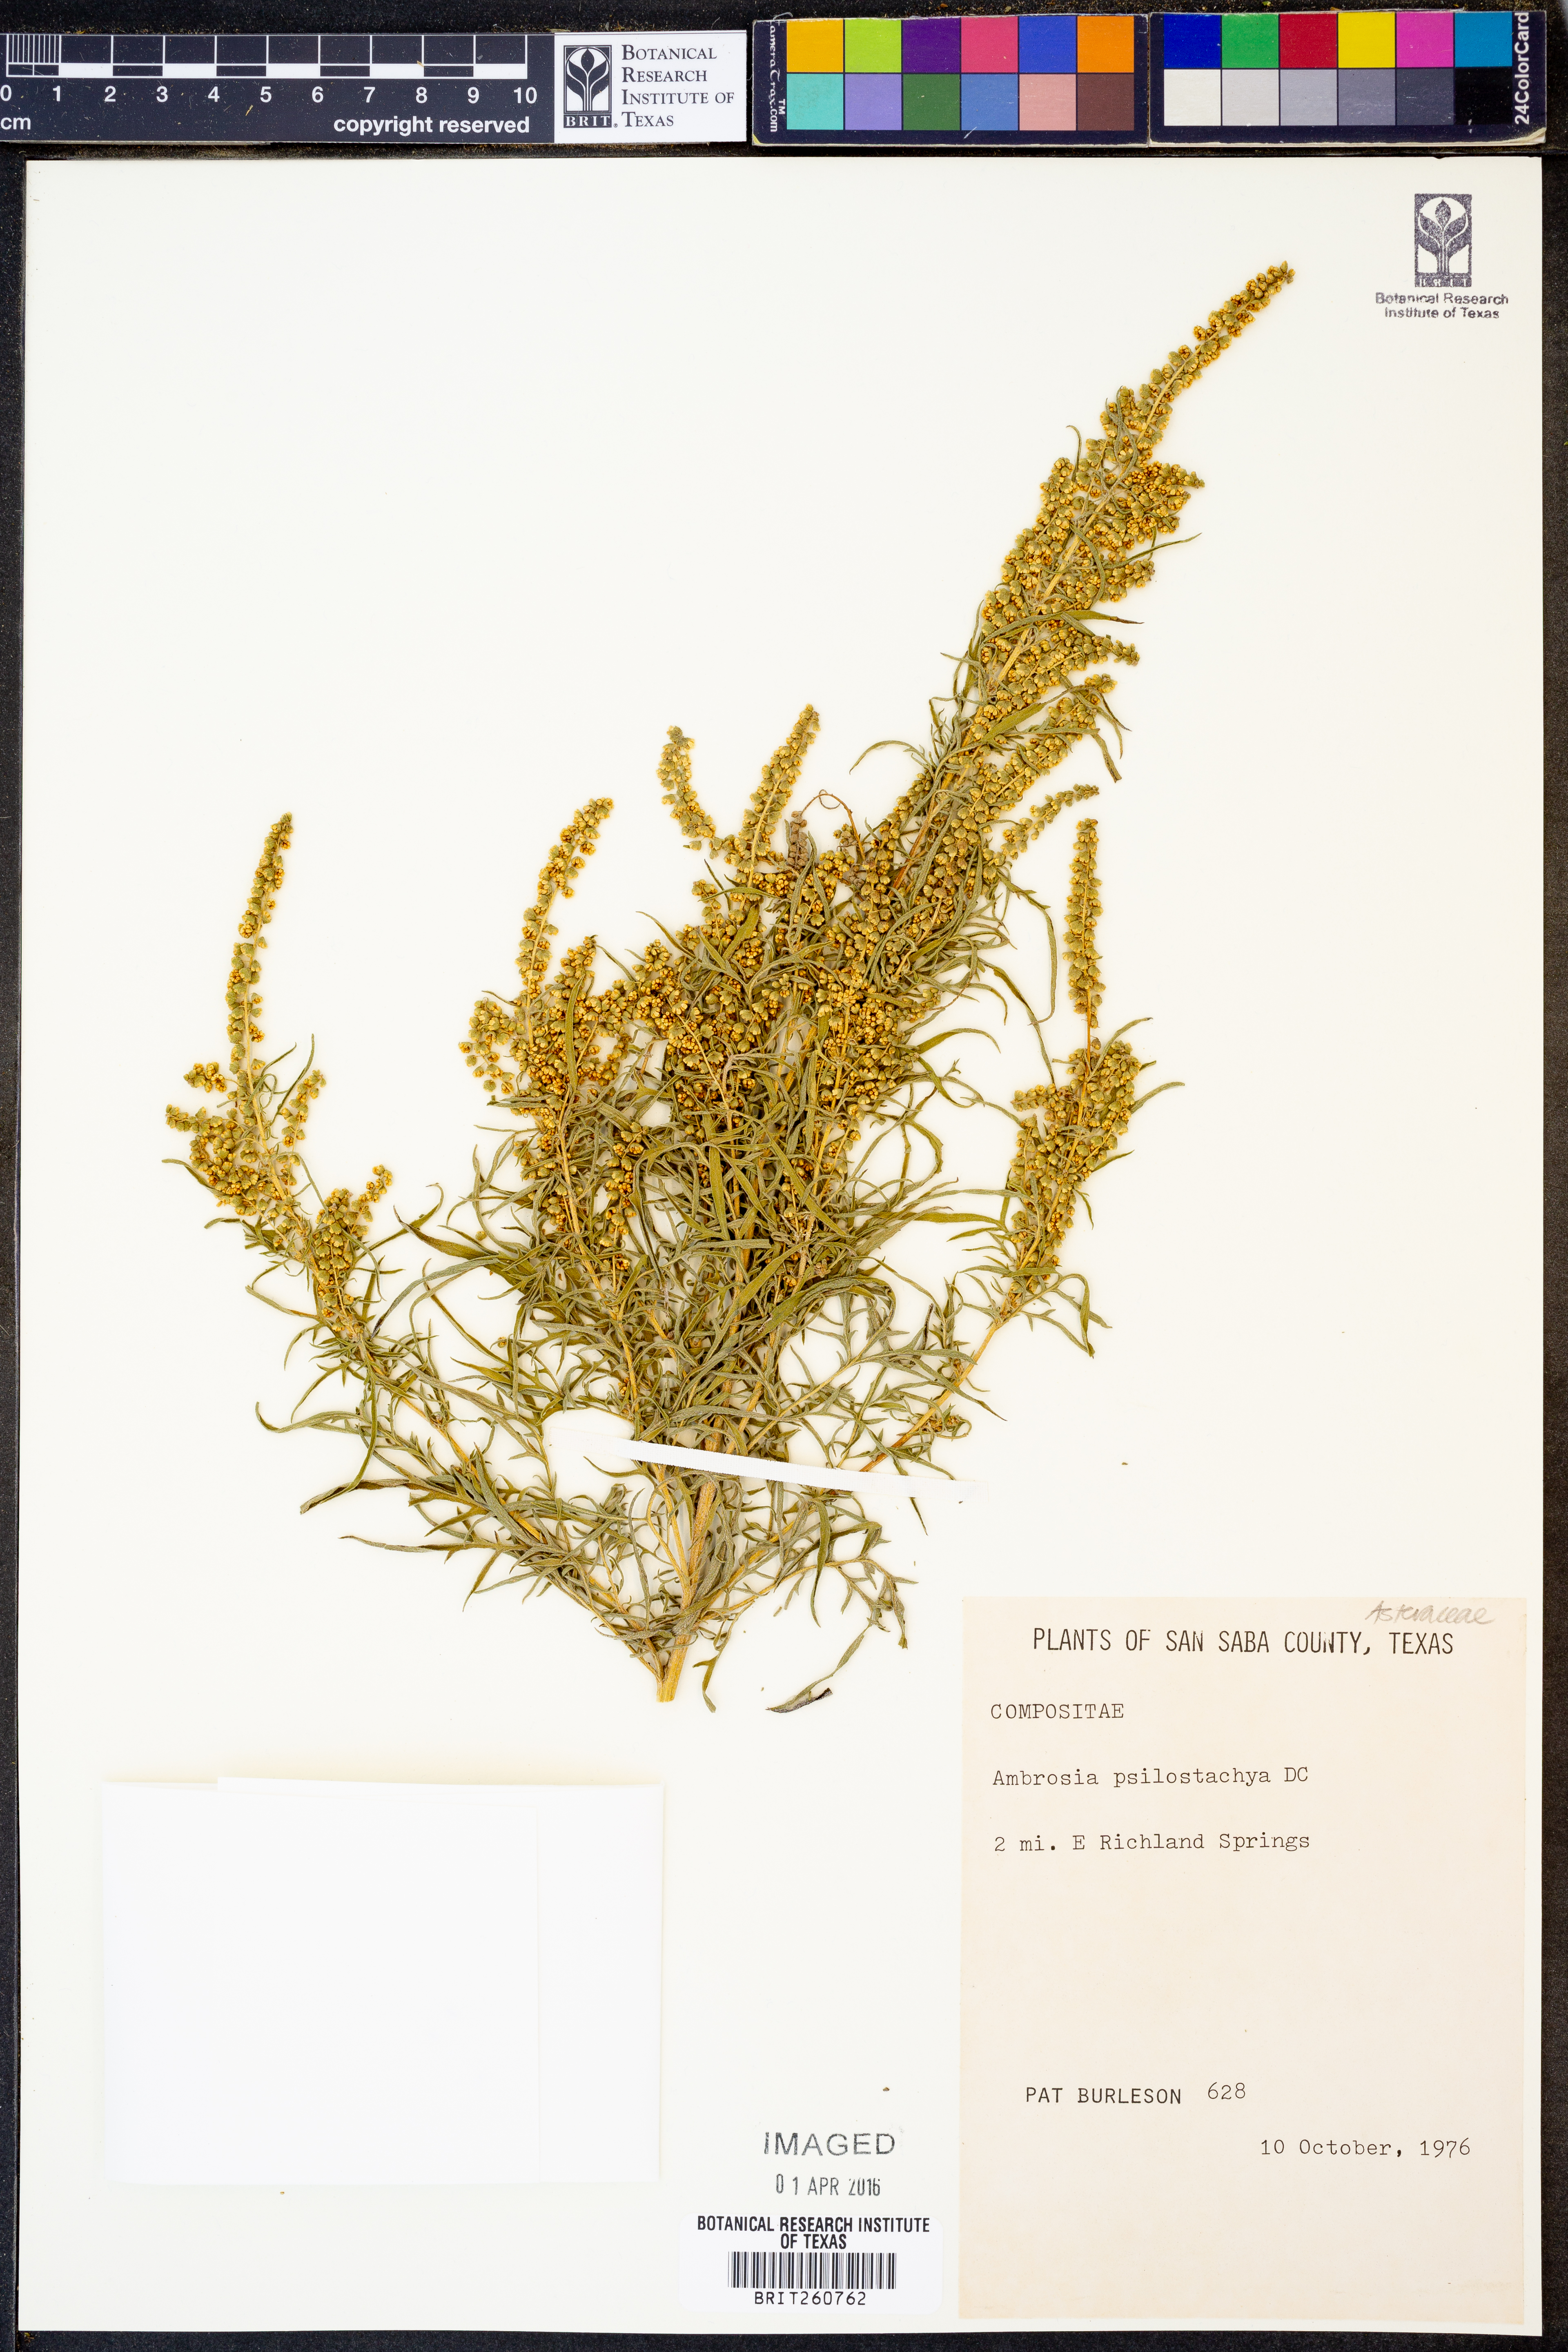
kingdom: Plantae
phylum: Tracheophyta
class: Magnoliopsida
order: Asterales
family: Asteraceae
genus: Ambrosia
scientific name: Ambrosia psilostachya
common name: Perennial ragweed
